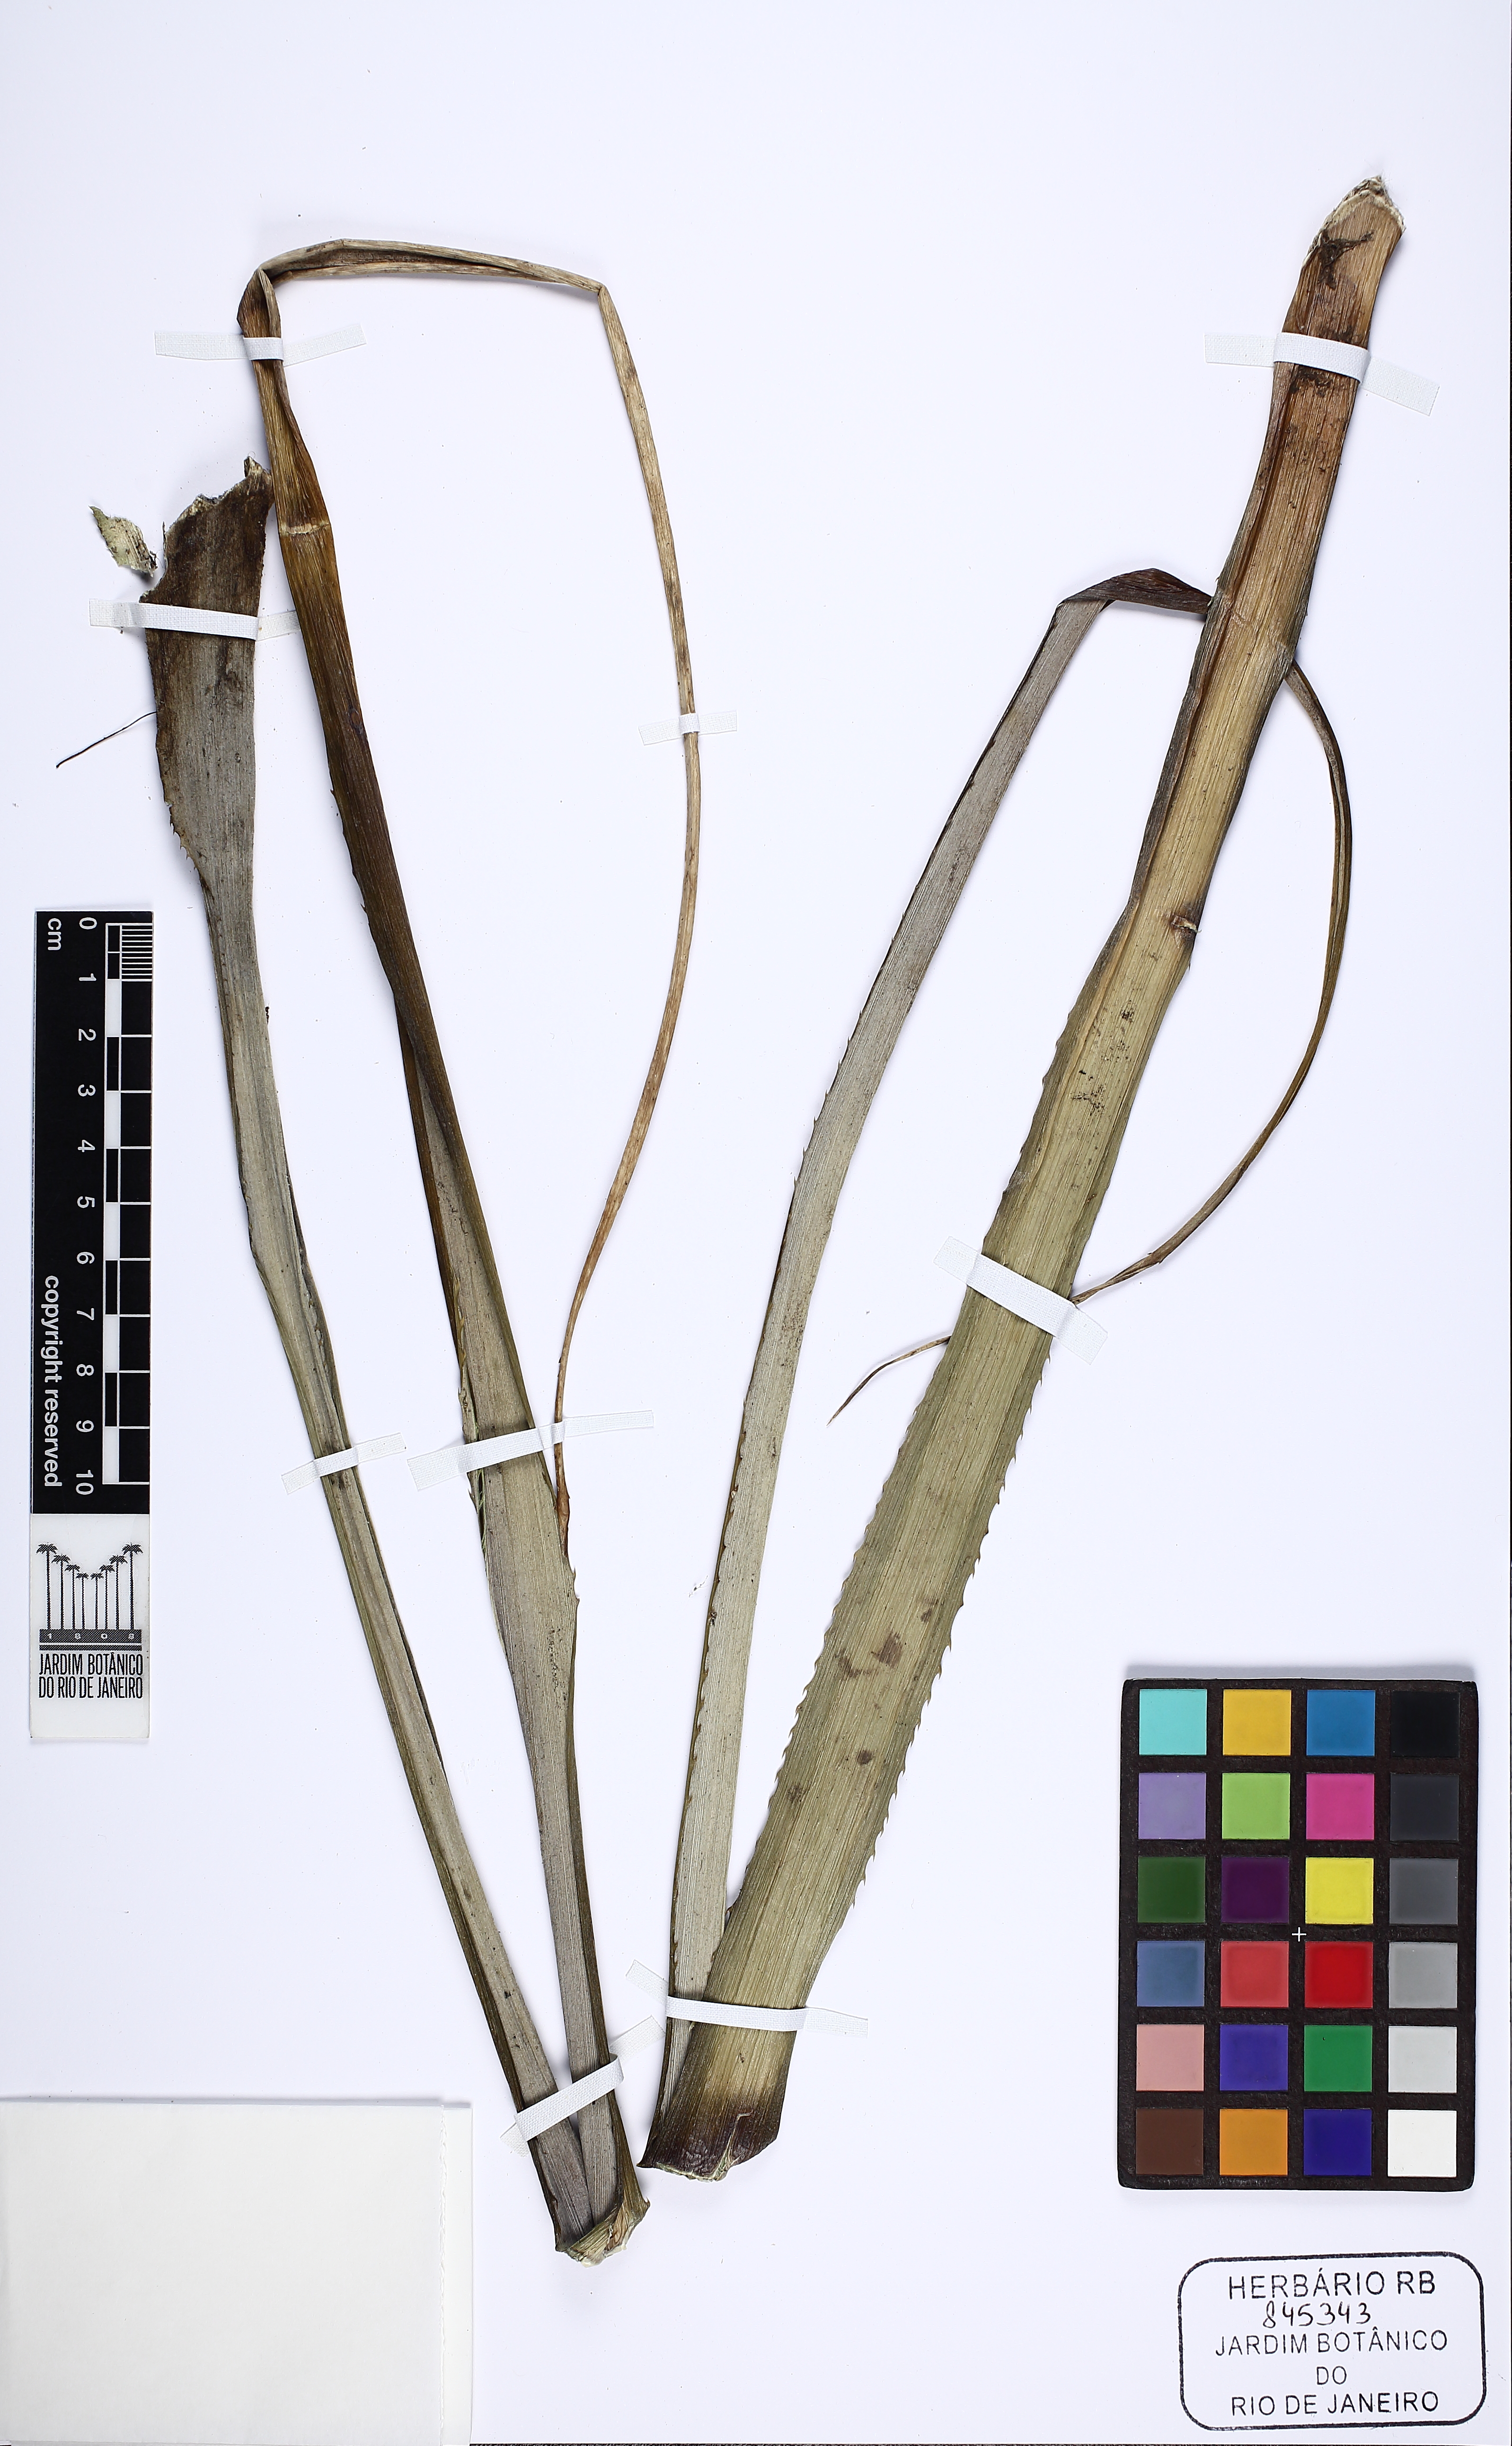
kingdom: Plantae
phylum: Tracheophyta
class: Liliopsida
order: Poales
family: Bromeliaceae
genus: Ananas
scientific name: Ananas comosus
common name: Pineapple
